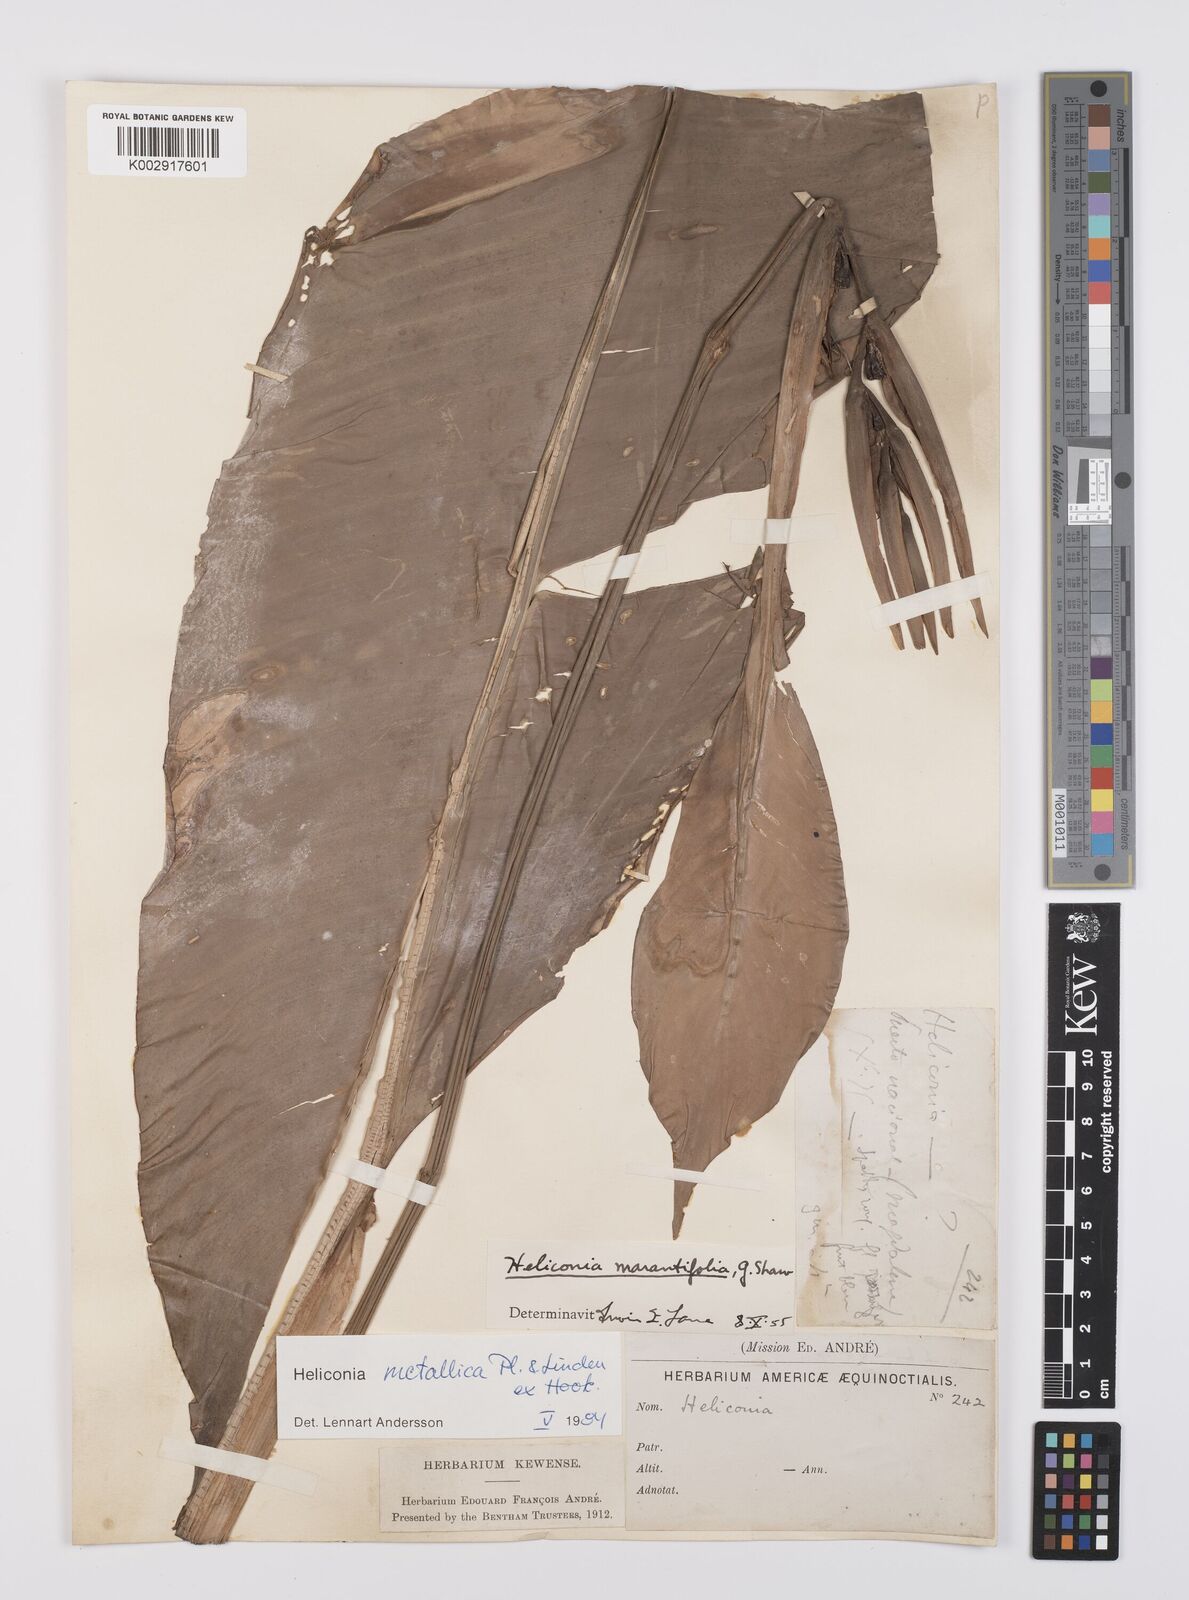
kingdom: Plantae
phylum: Tracheophyta
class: Liliopsida
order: Zingiberales
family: Heliconiaceae
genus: Heliconia
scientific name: Heliconia metallica
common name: Shining bird of paradise
